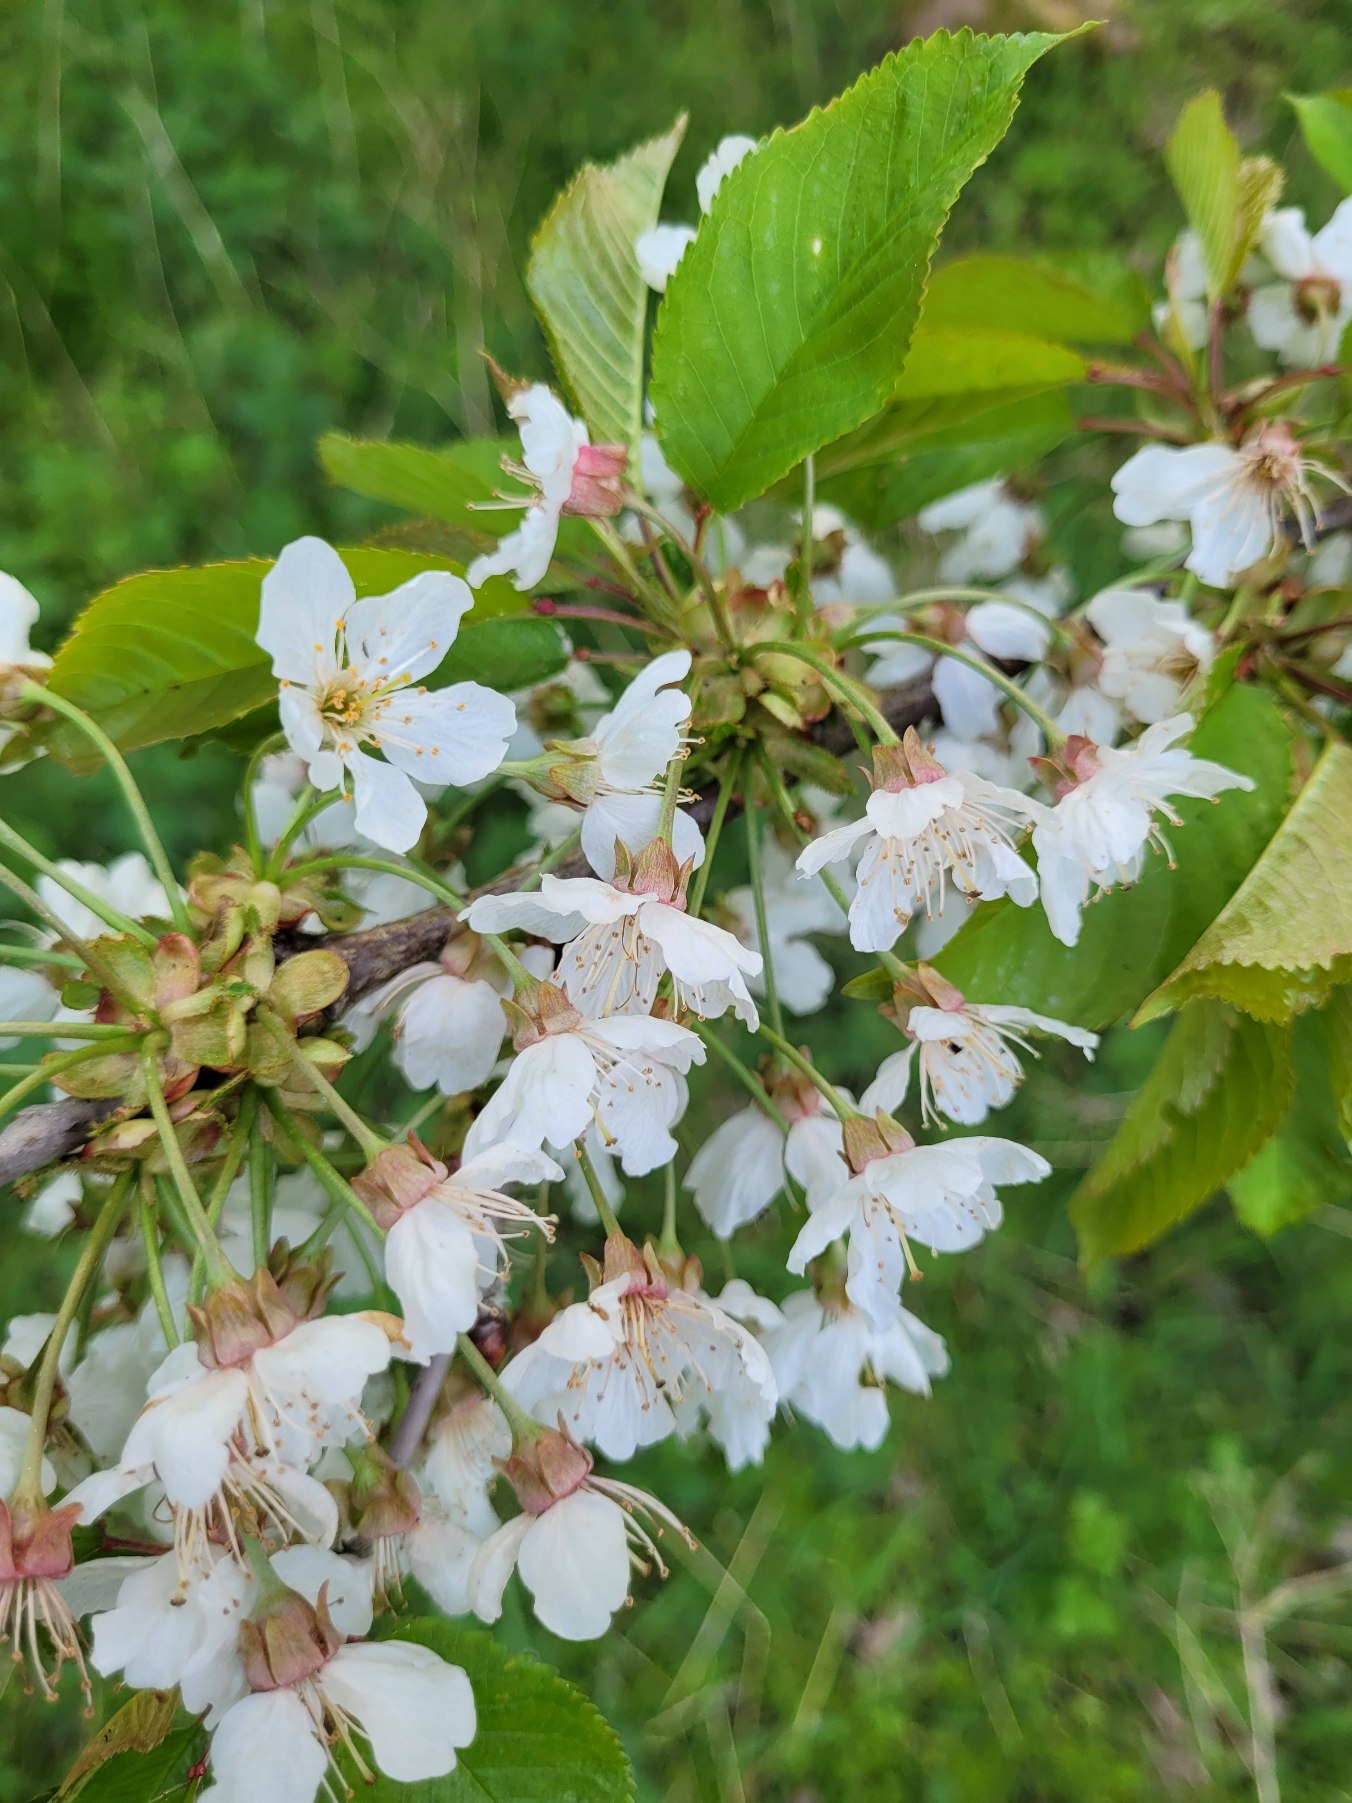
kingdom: Plantae
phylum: Tracheophyta
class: Magnoliopsida
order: Rosales
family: Rosaceae
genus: Prunus
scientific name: Prunus avium
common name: Fugle-kirsebær
